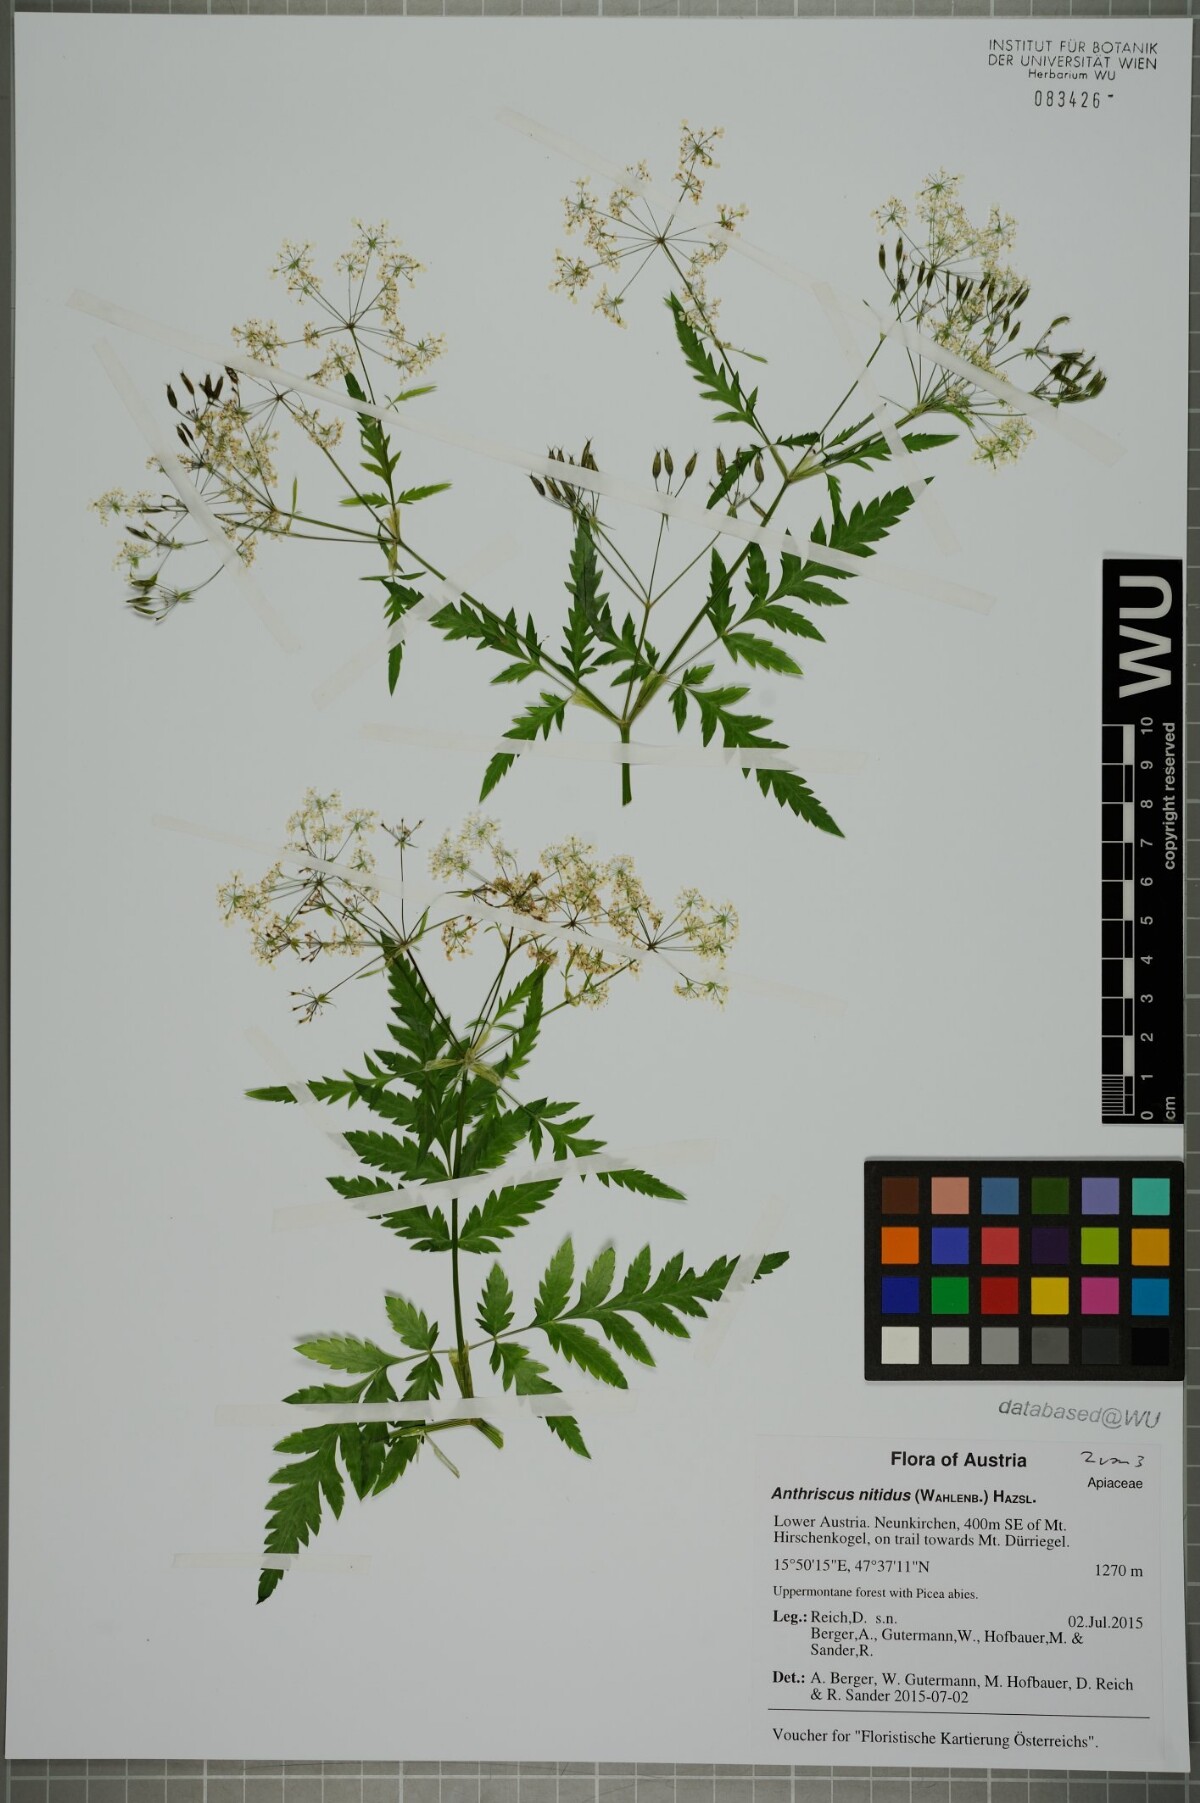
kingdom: Plantae
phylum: Tracheophyta
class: Magnoliopsida
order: Apiales
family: Apiaceae
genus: Anthriscus
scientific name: Anthriscus nitida
